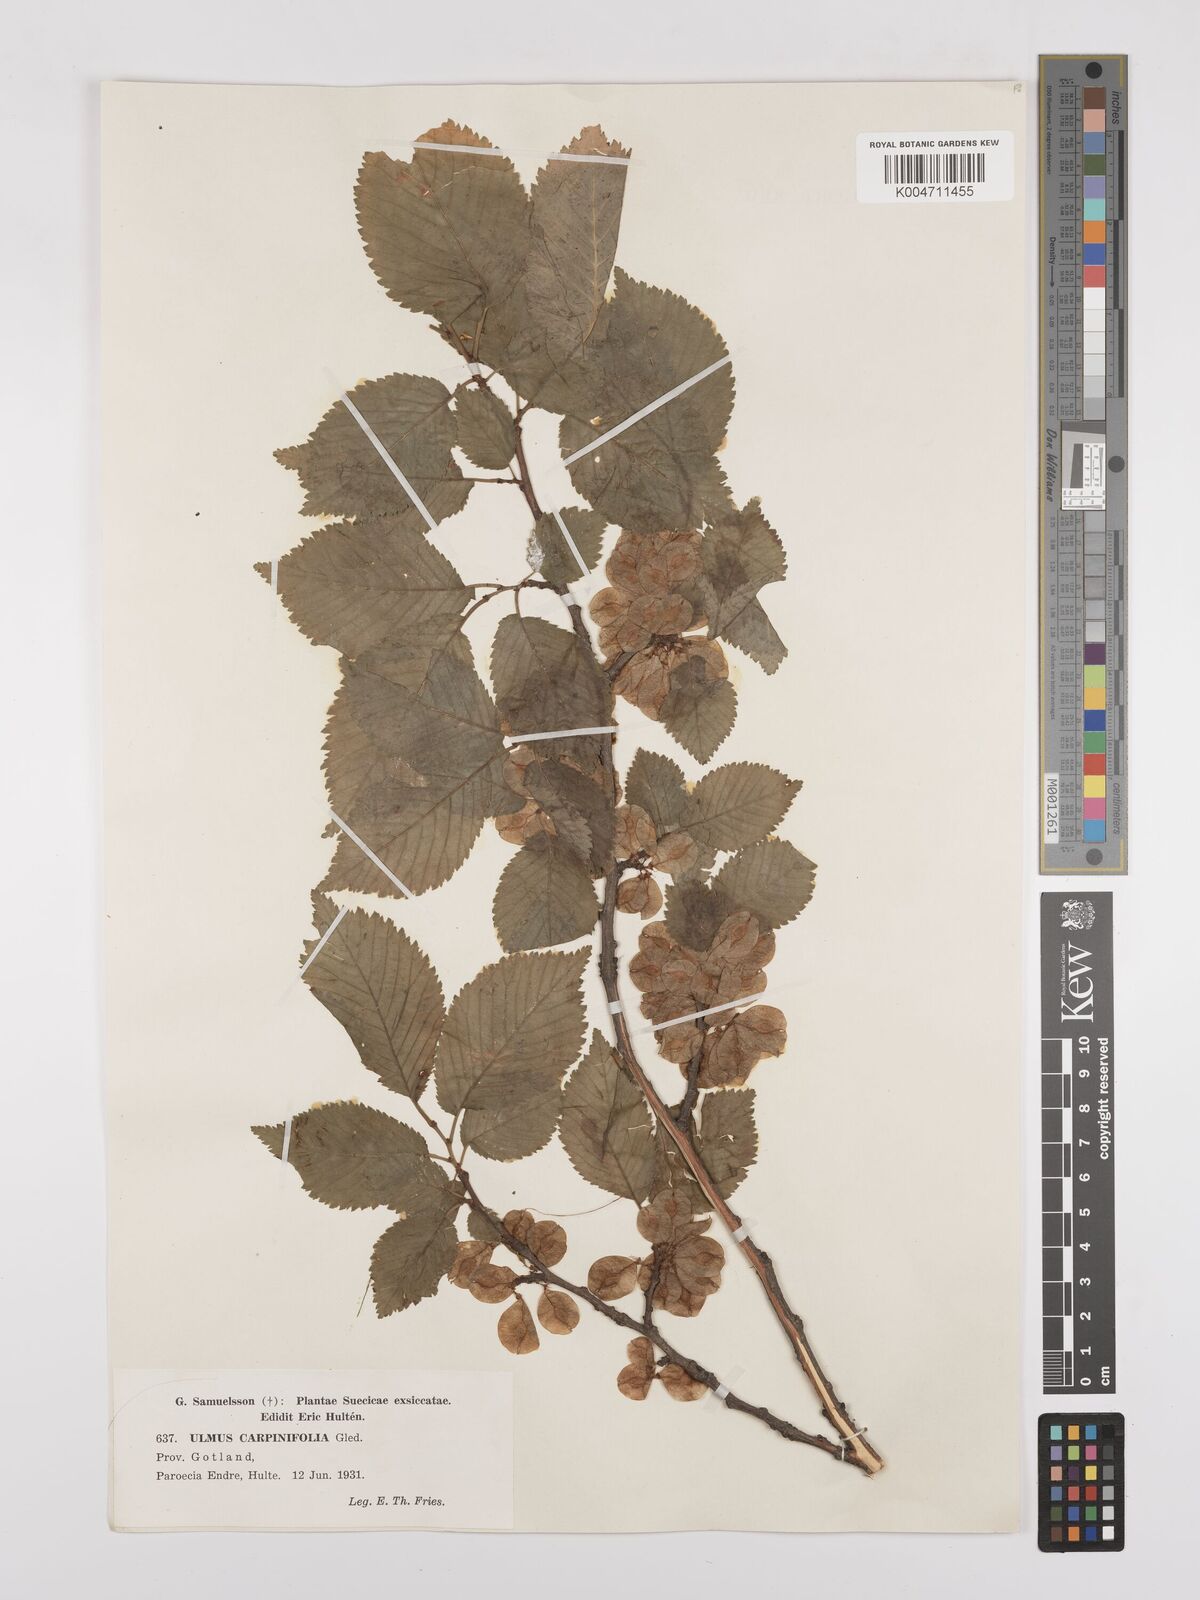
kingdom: Plantae
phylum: Tracheophyta
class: Magnoliopsida
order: Rosales
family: Ulmaceae
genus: Ulmus
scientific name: Ulmus minor
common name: Small-leaved elm
